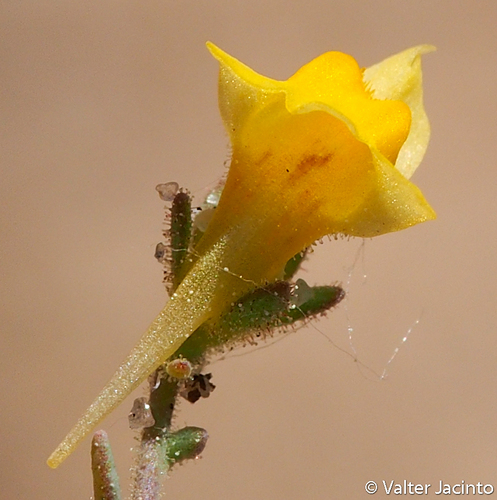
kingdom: Plantae
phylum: Tracheophyta
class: Magnoliopsida
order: Lamiales
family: Plantaginaceae
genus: Linaria
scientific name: Linaria munbyana
